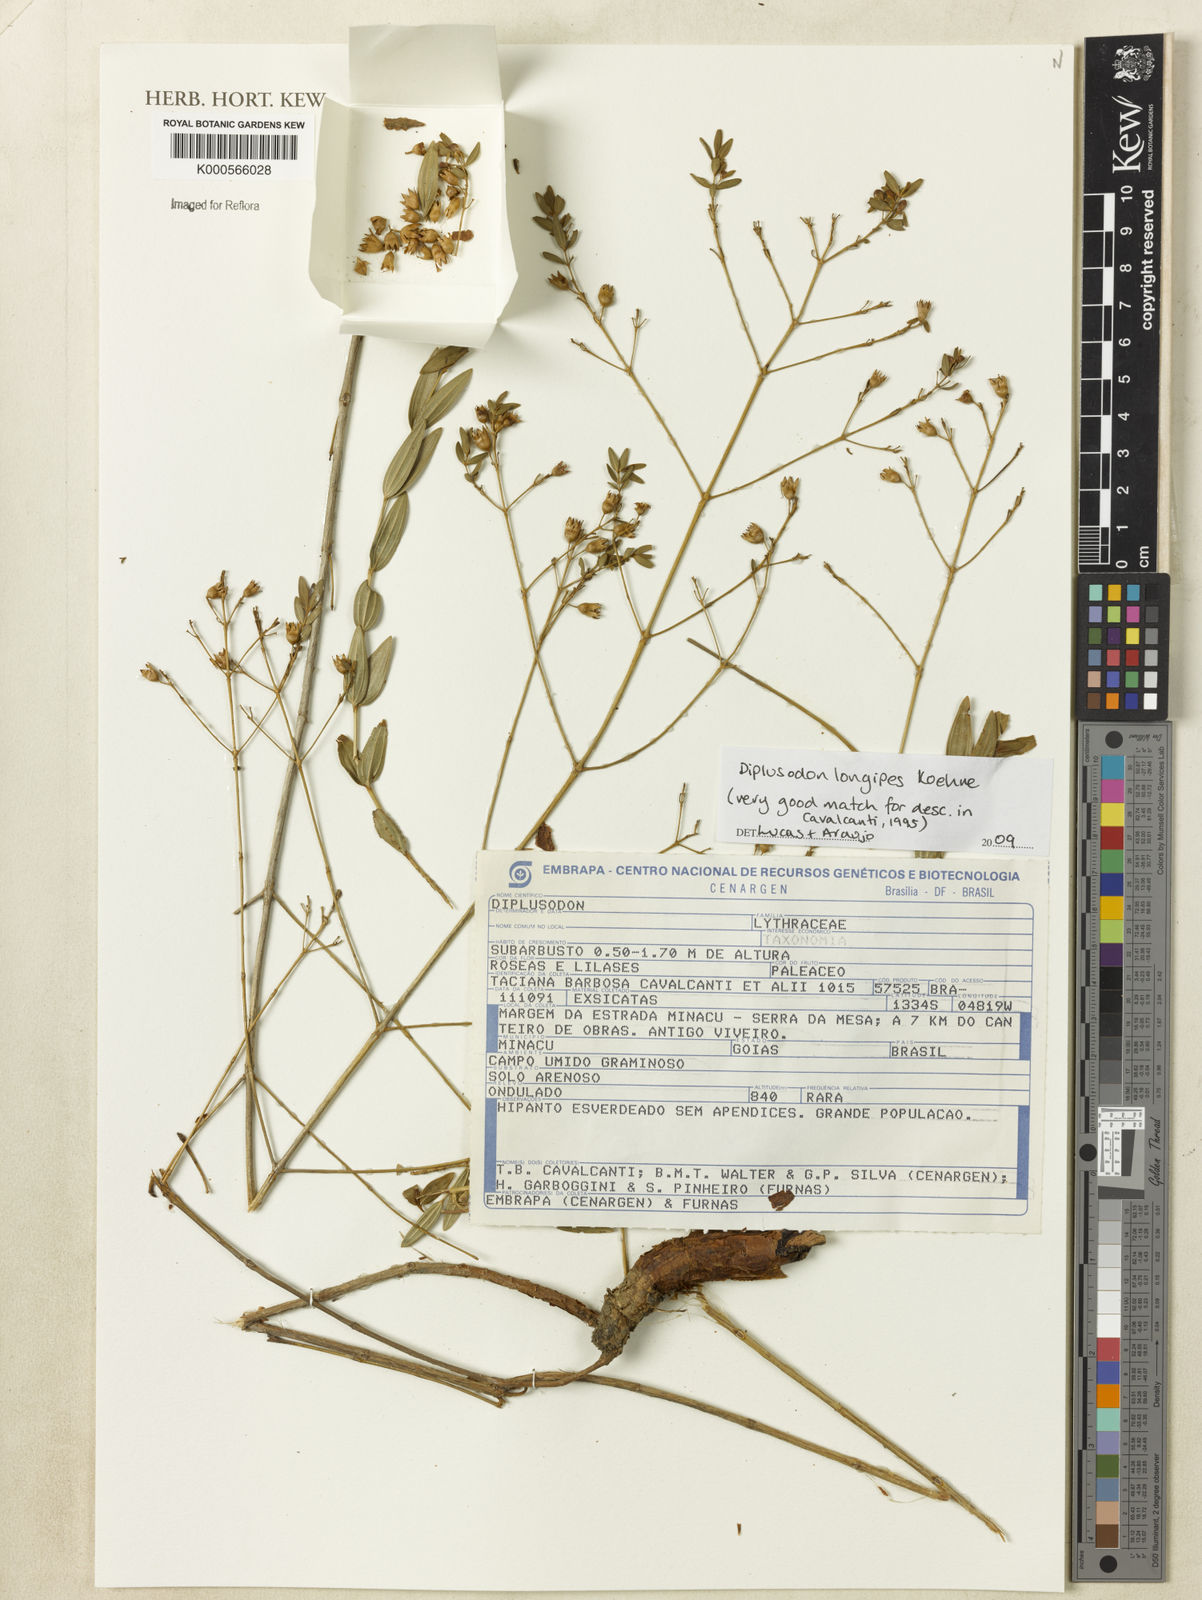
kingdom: Plantae
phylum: Tracheophyta
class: Magnoliopsida
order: Myrtales
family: Lythraceae
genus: Diplusodon
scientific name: Diplusodon longipes
